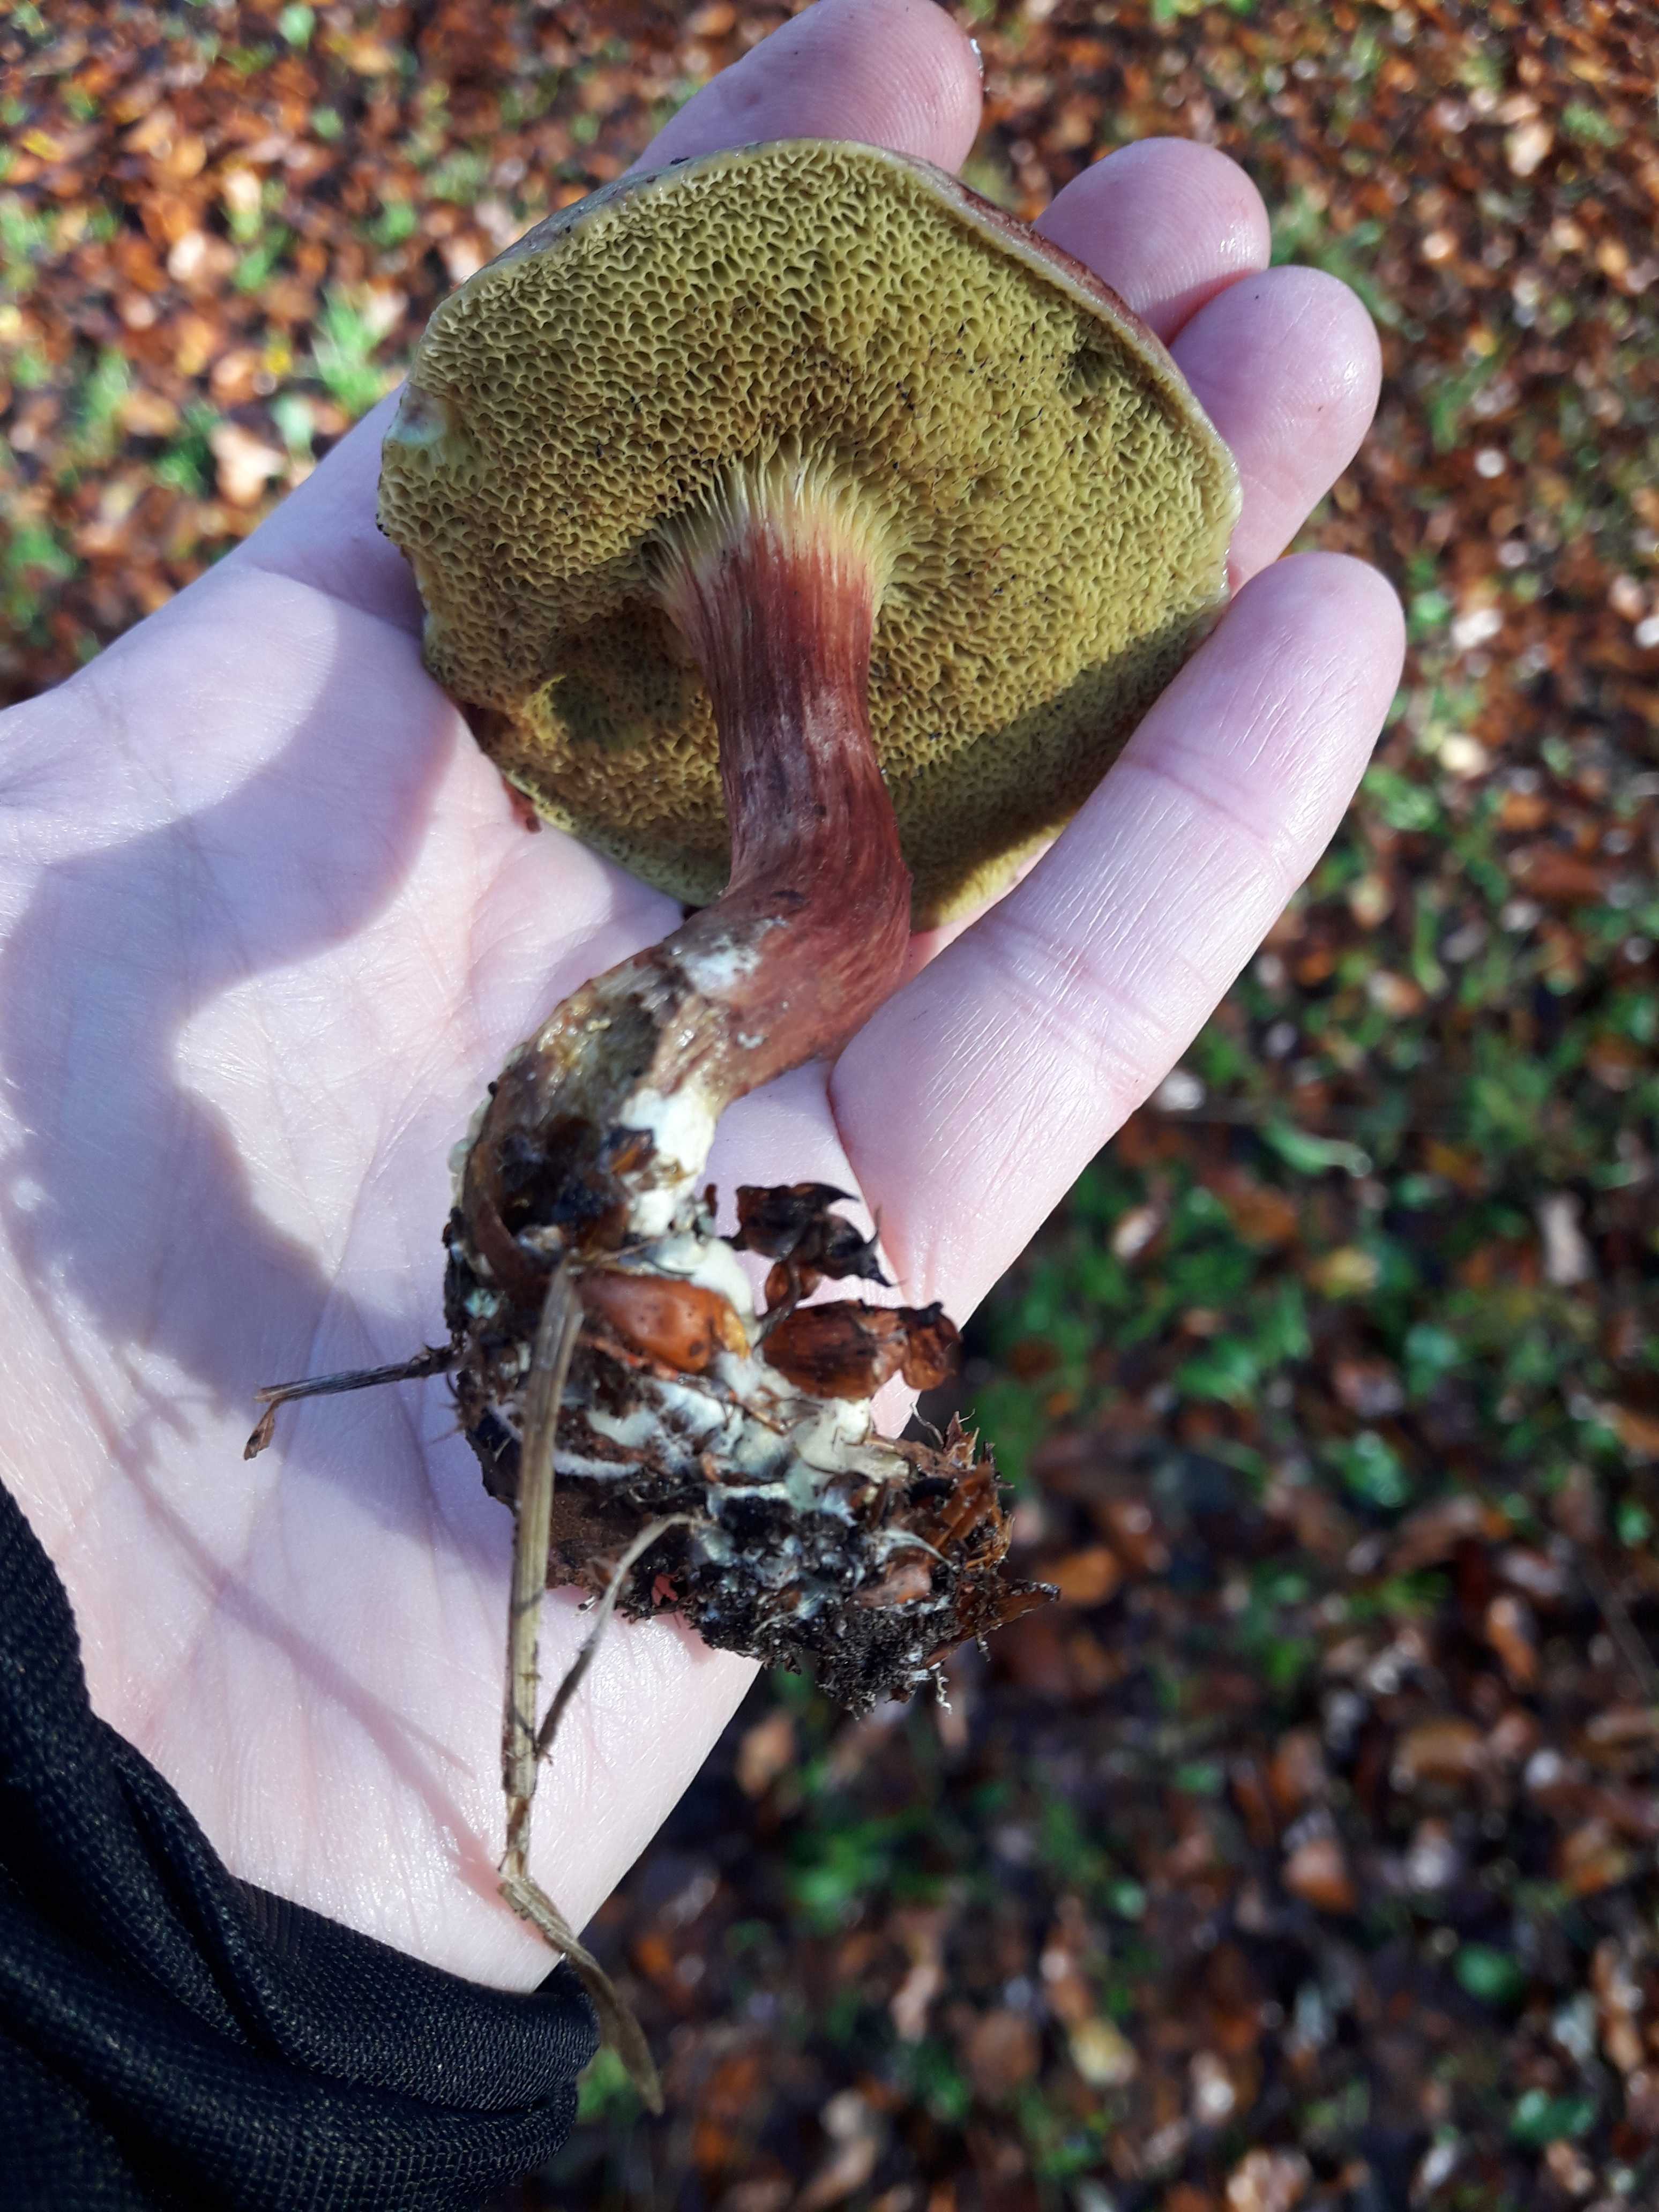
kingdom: Fungi
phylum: Basidiomycota
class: Agaricomycetes
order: Boletales
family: Boletaceae
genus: Xerocomellus
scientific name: Xerocomellus pruinatus
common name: dugget rørhat
